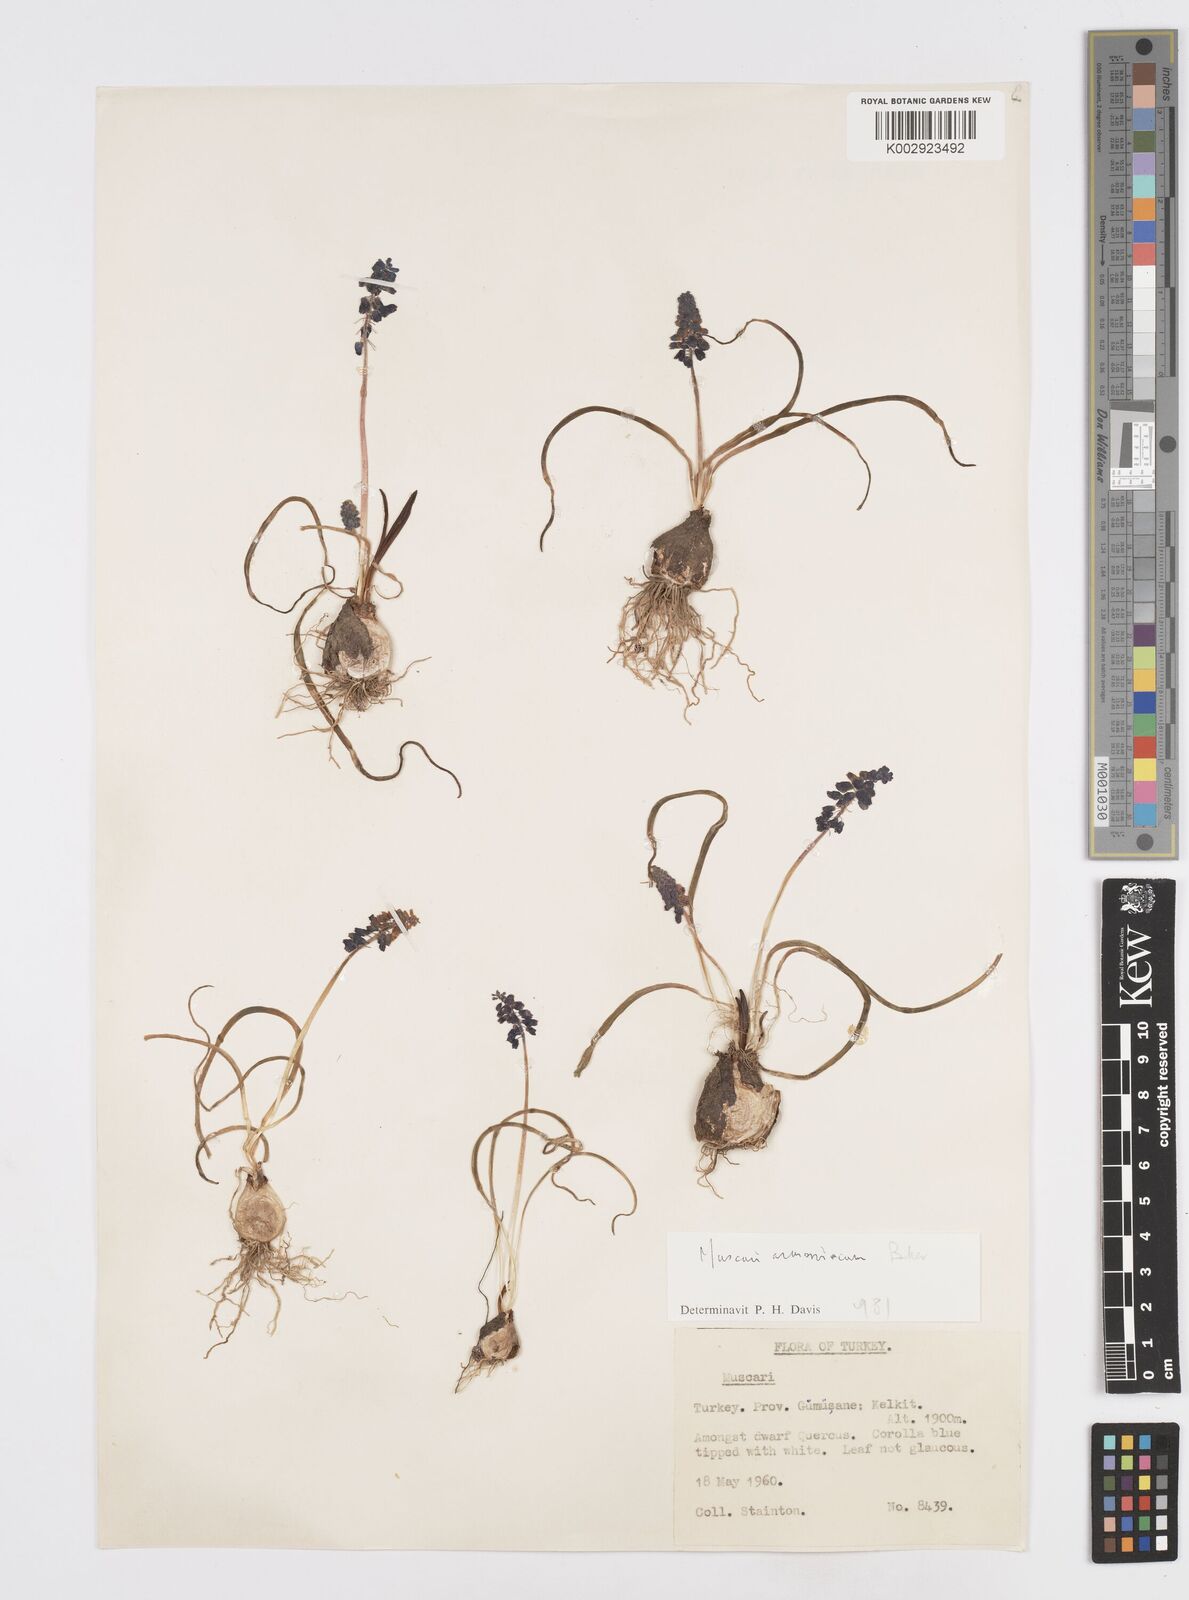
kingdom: Plantae
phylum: Tracheophyta
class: Liliopsida
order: Asparagales
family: Asparagaceae
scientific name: Asparagaceae
